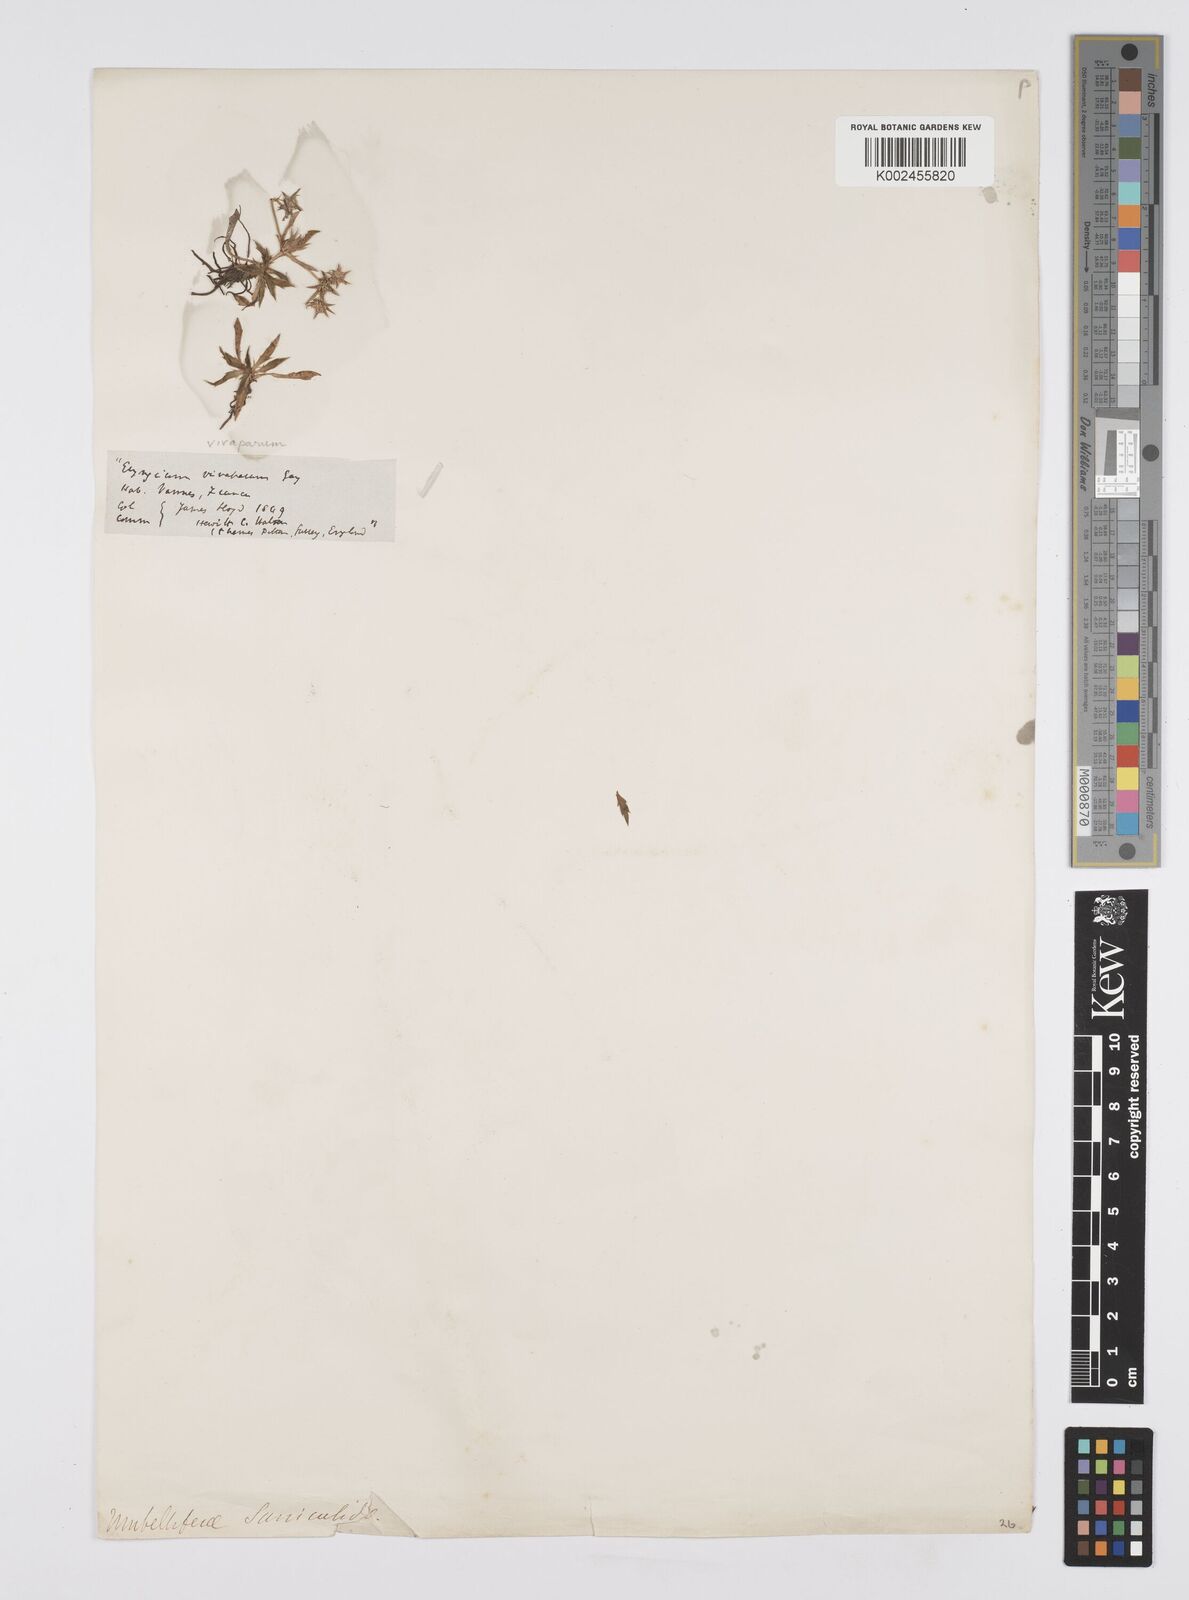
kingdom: Plantae
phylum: Tracheophyta
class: Magnoliopsida
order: Apiales
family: Apiaceae
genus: Eryngium
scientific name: Eryngium viviparum
